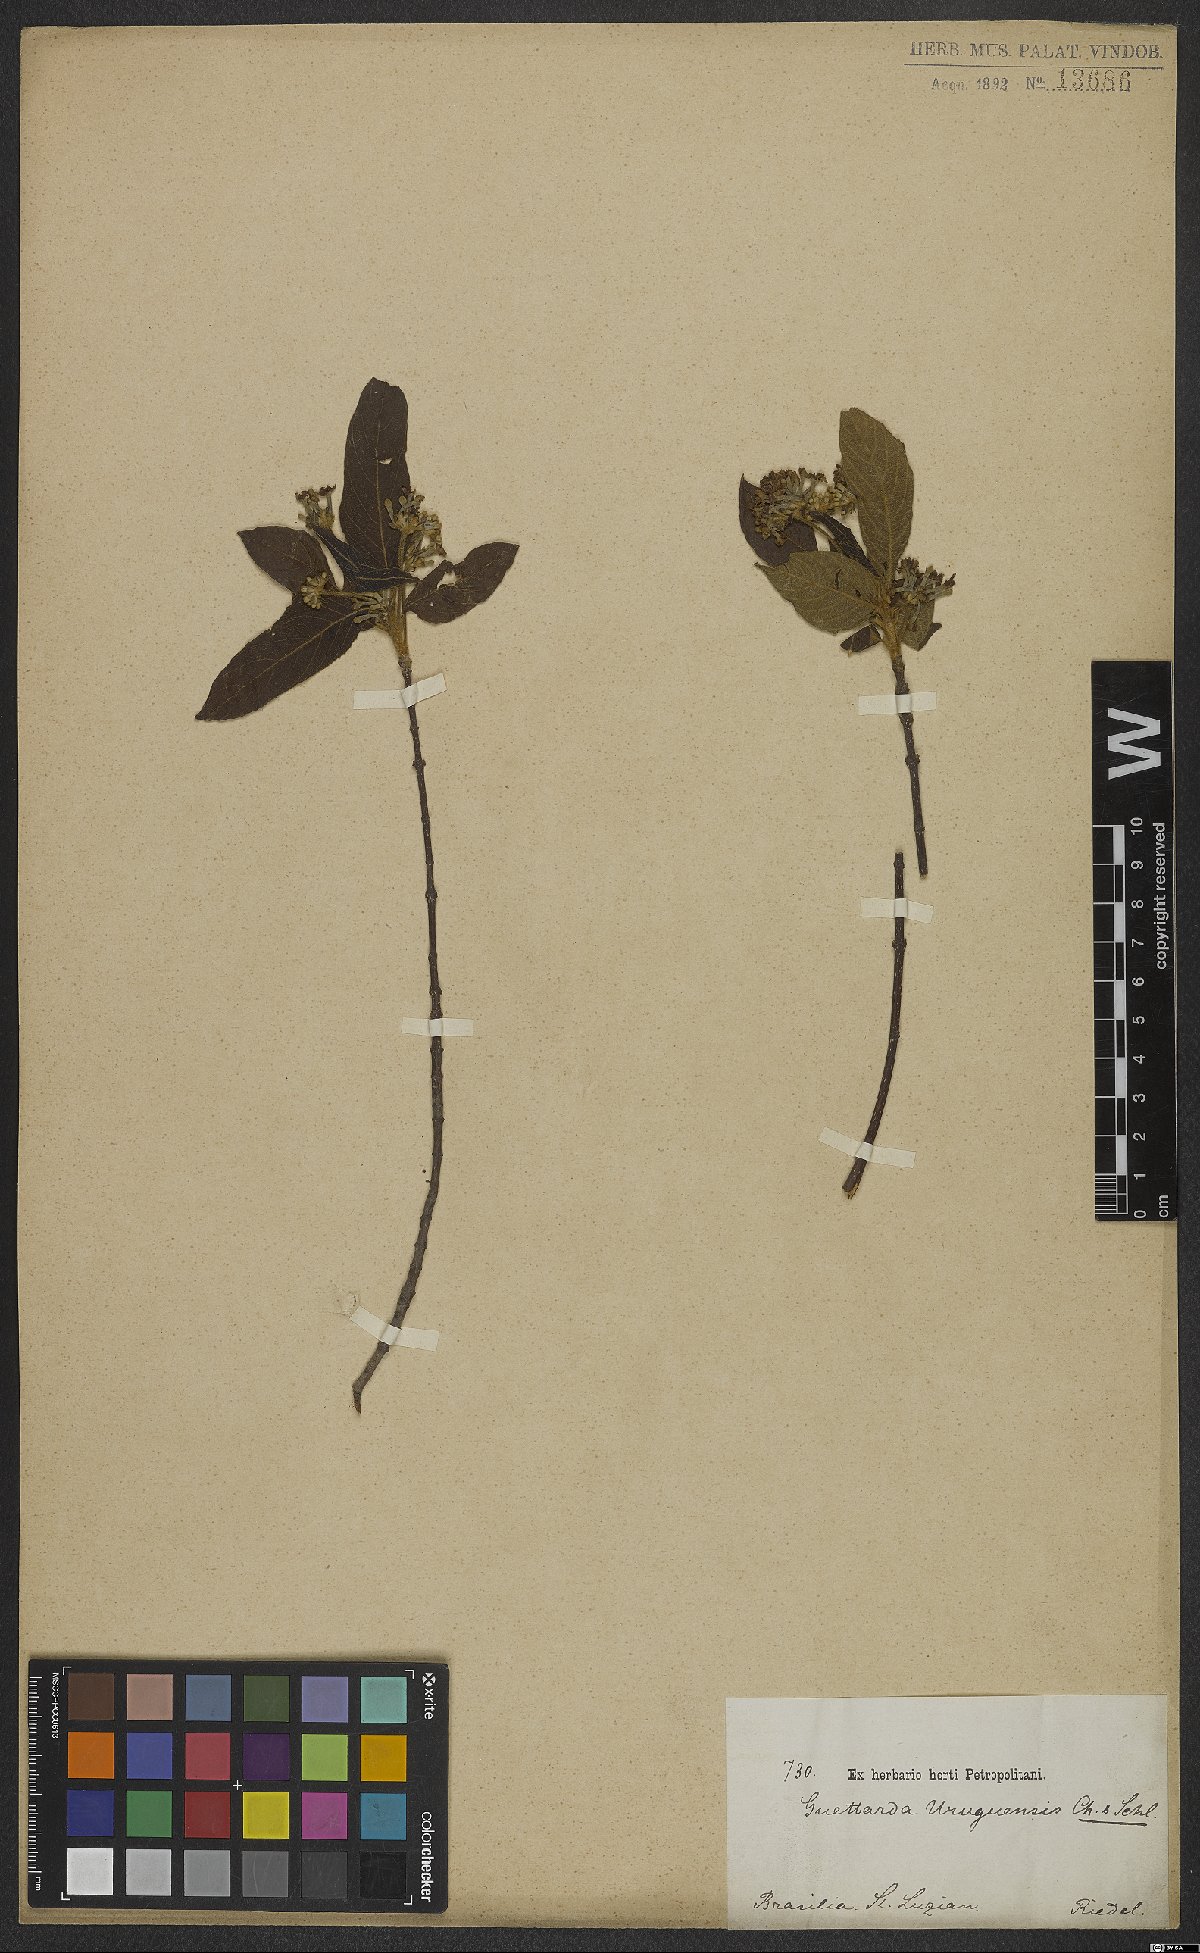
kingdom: Plantae
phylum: Tracheophyta
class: Magnoliopsida
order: Gentianales
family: Rubiaceae
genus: Guettarda
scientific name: Guettarda uruguensis
